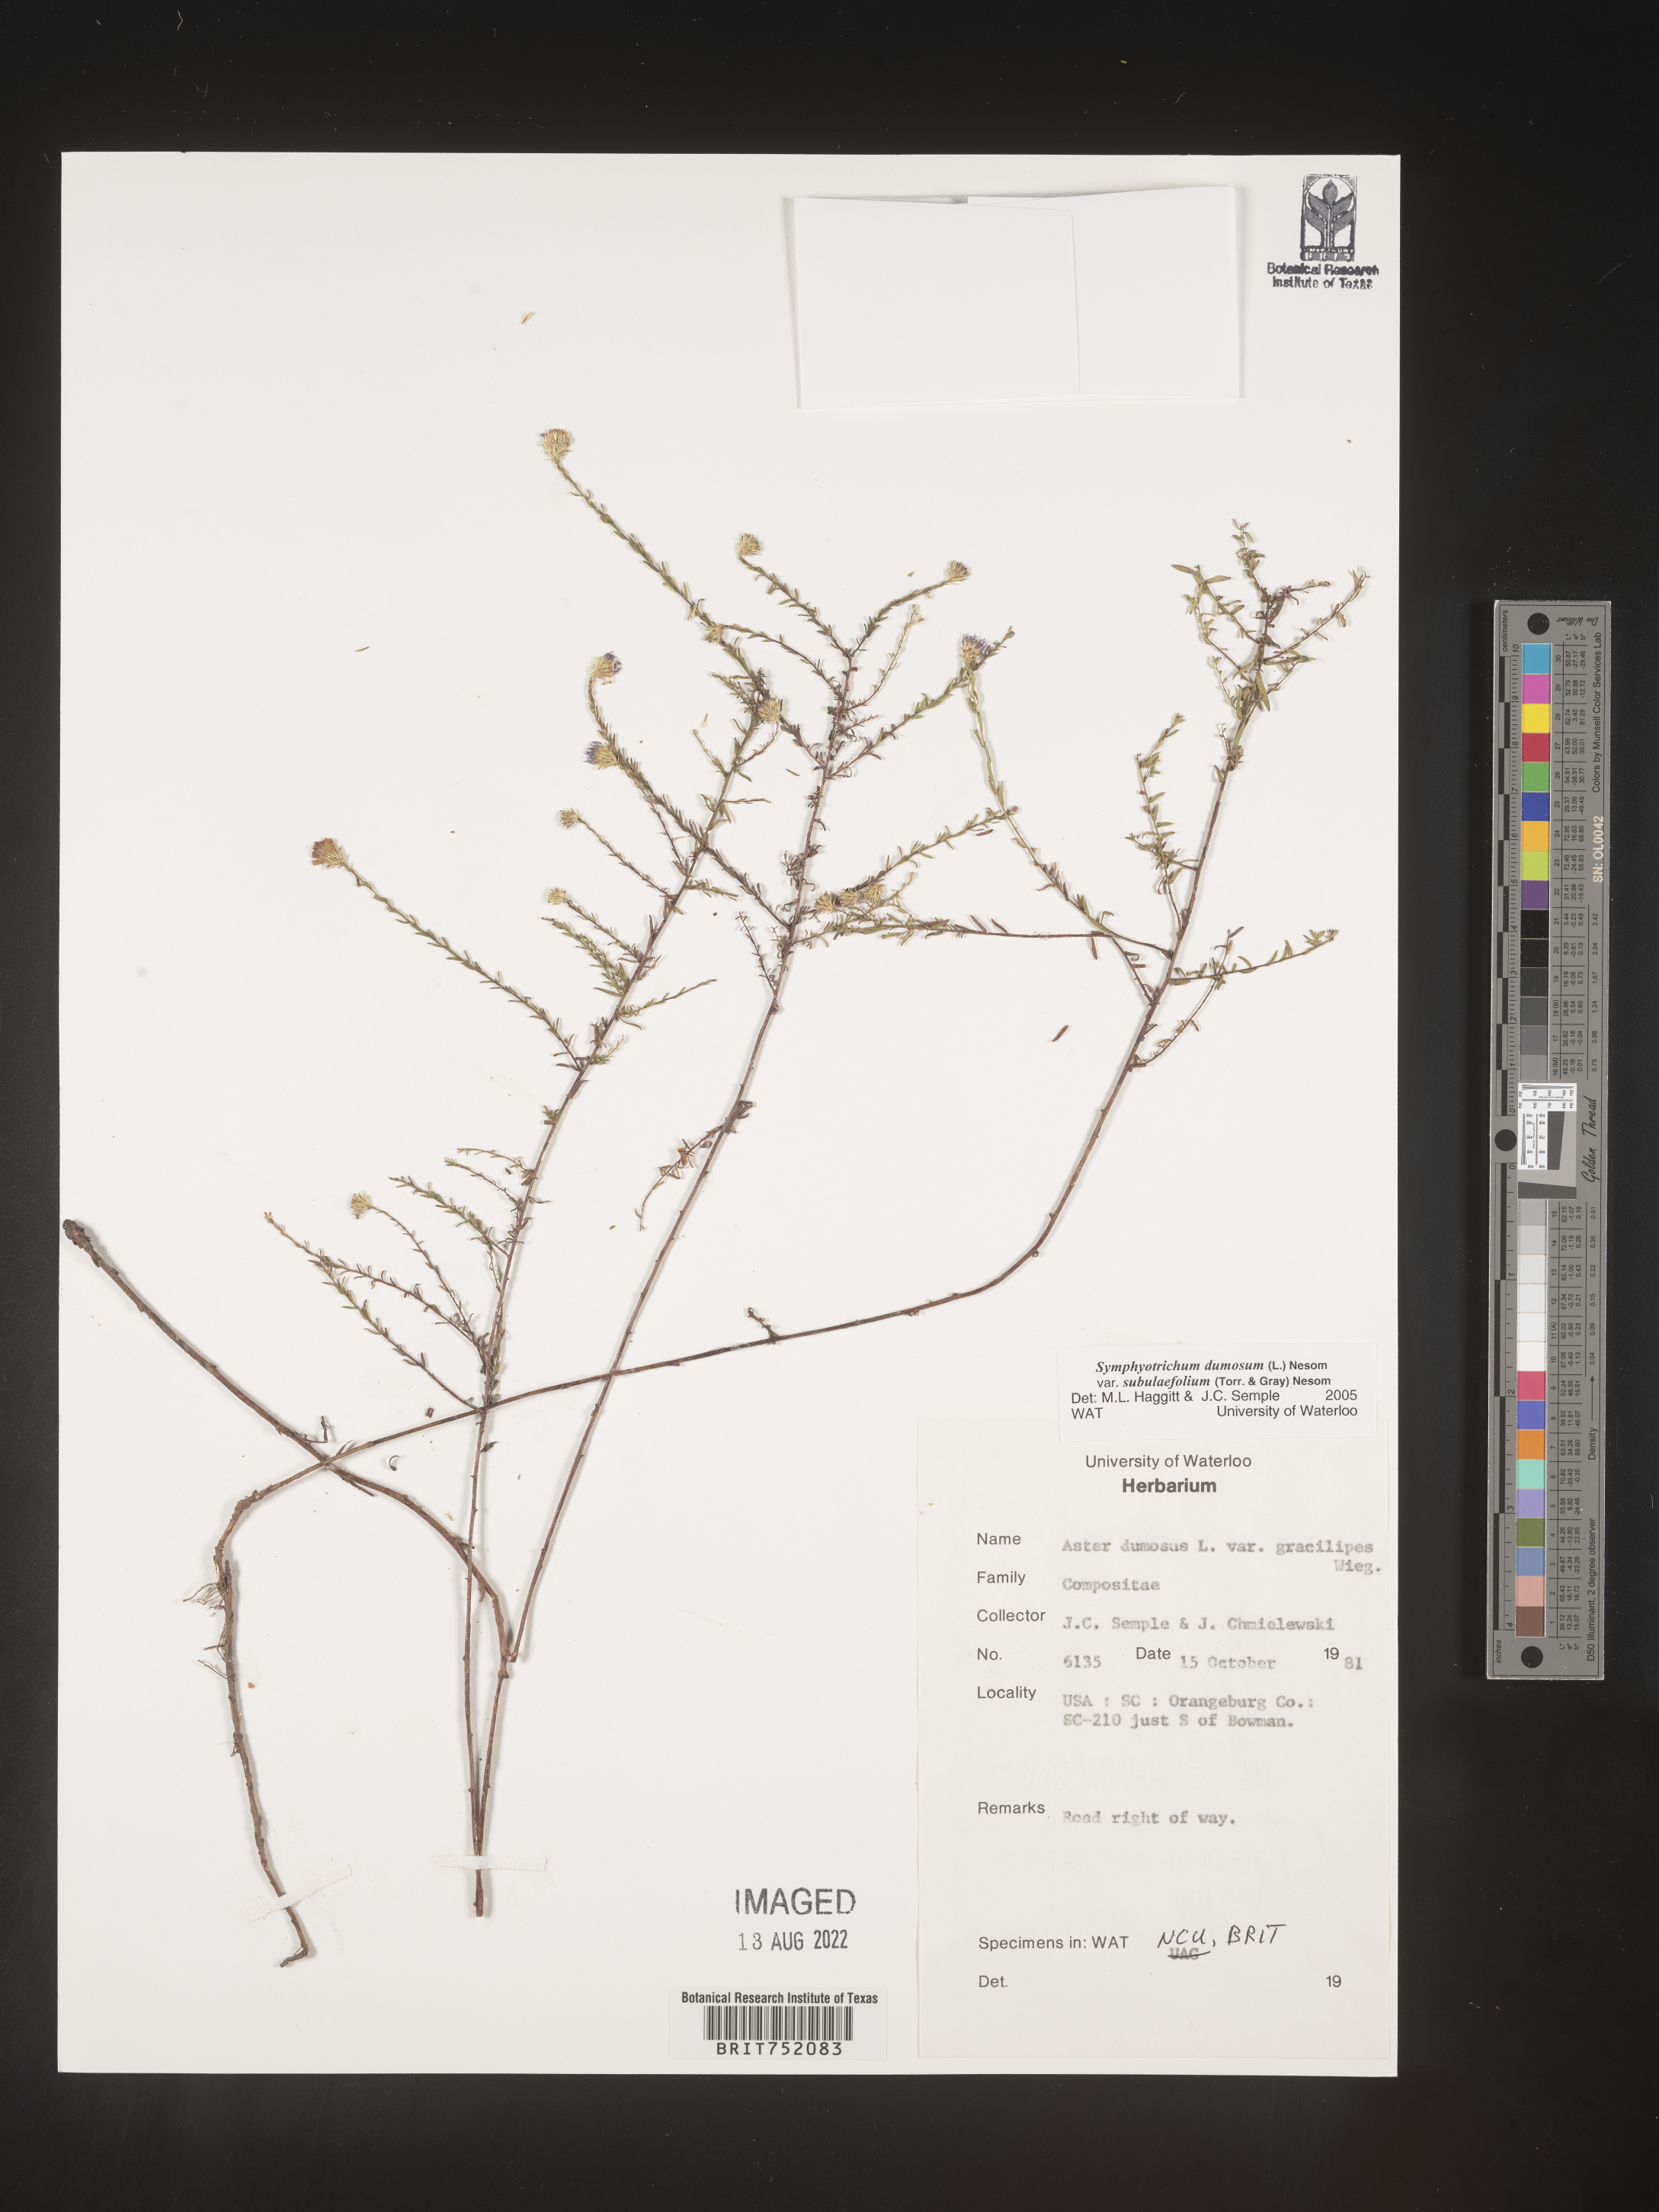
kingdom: Plantae
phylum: Tracheophyta
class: Magnoliopsida
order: Asterales
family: Asteraceae
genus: Symphyotrichum
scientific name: Symphyotrichum dumosum
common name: Bushy aster
